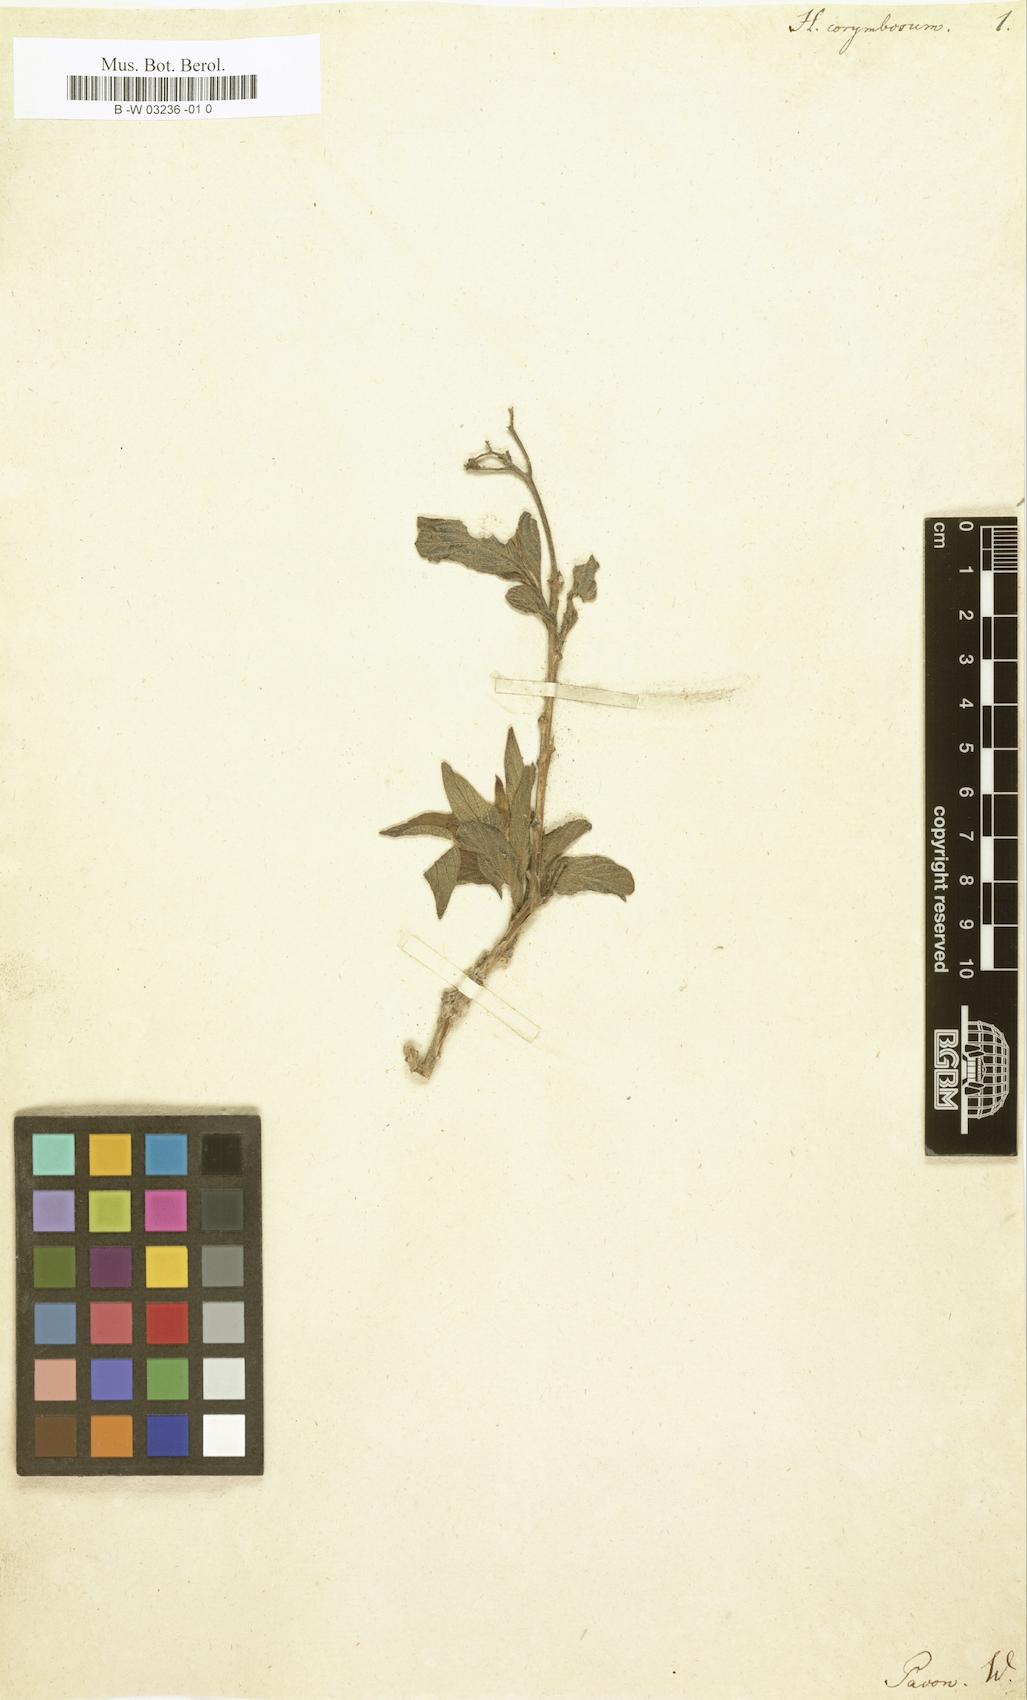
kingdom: Plantae
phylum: Tracheophyta
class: Magnoliopsida
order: Boraginales
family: Heliotropiaceae
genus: Heliotropium
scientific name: Heliotropium arborescens
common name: Cherry-pie
